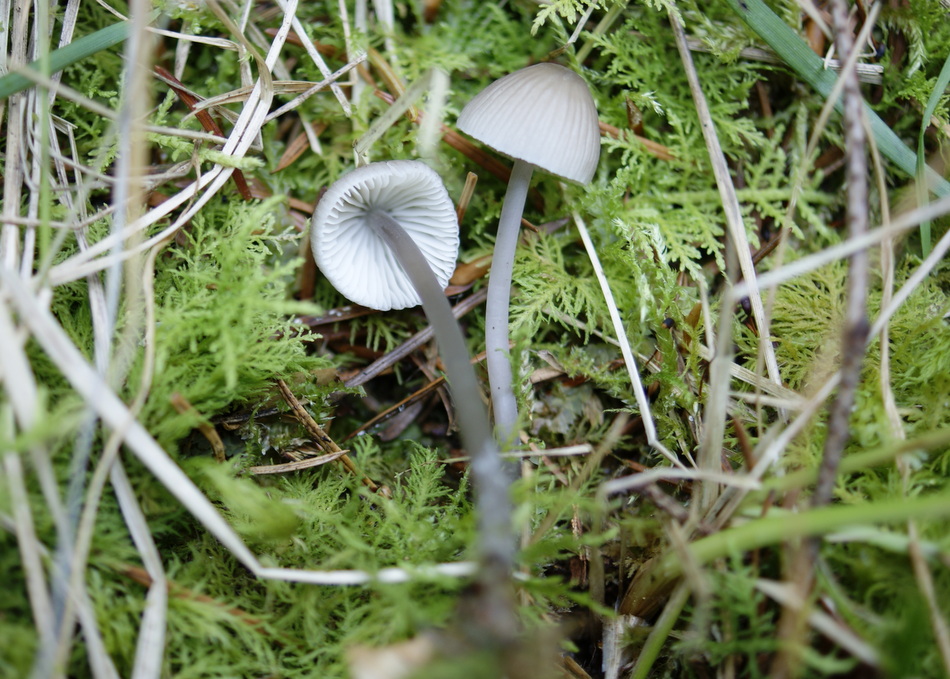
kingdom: Fungi
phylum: Basidiomycota
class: Agaricomycetes
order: Agaricales
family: Mycenaceae
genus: Mycena
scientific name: Mycena filopes
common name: jod-huesvamp
